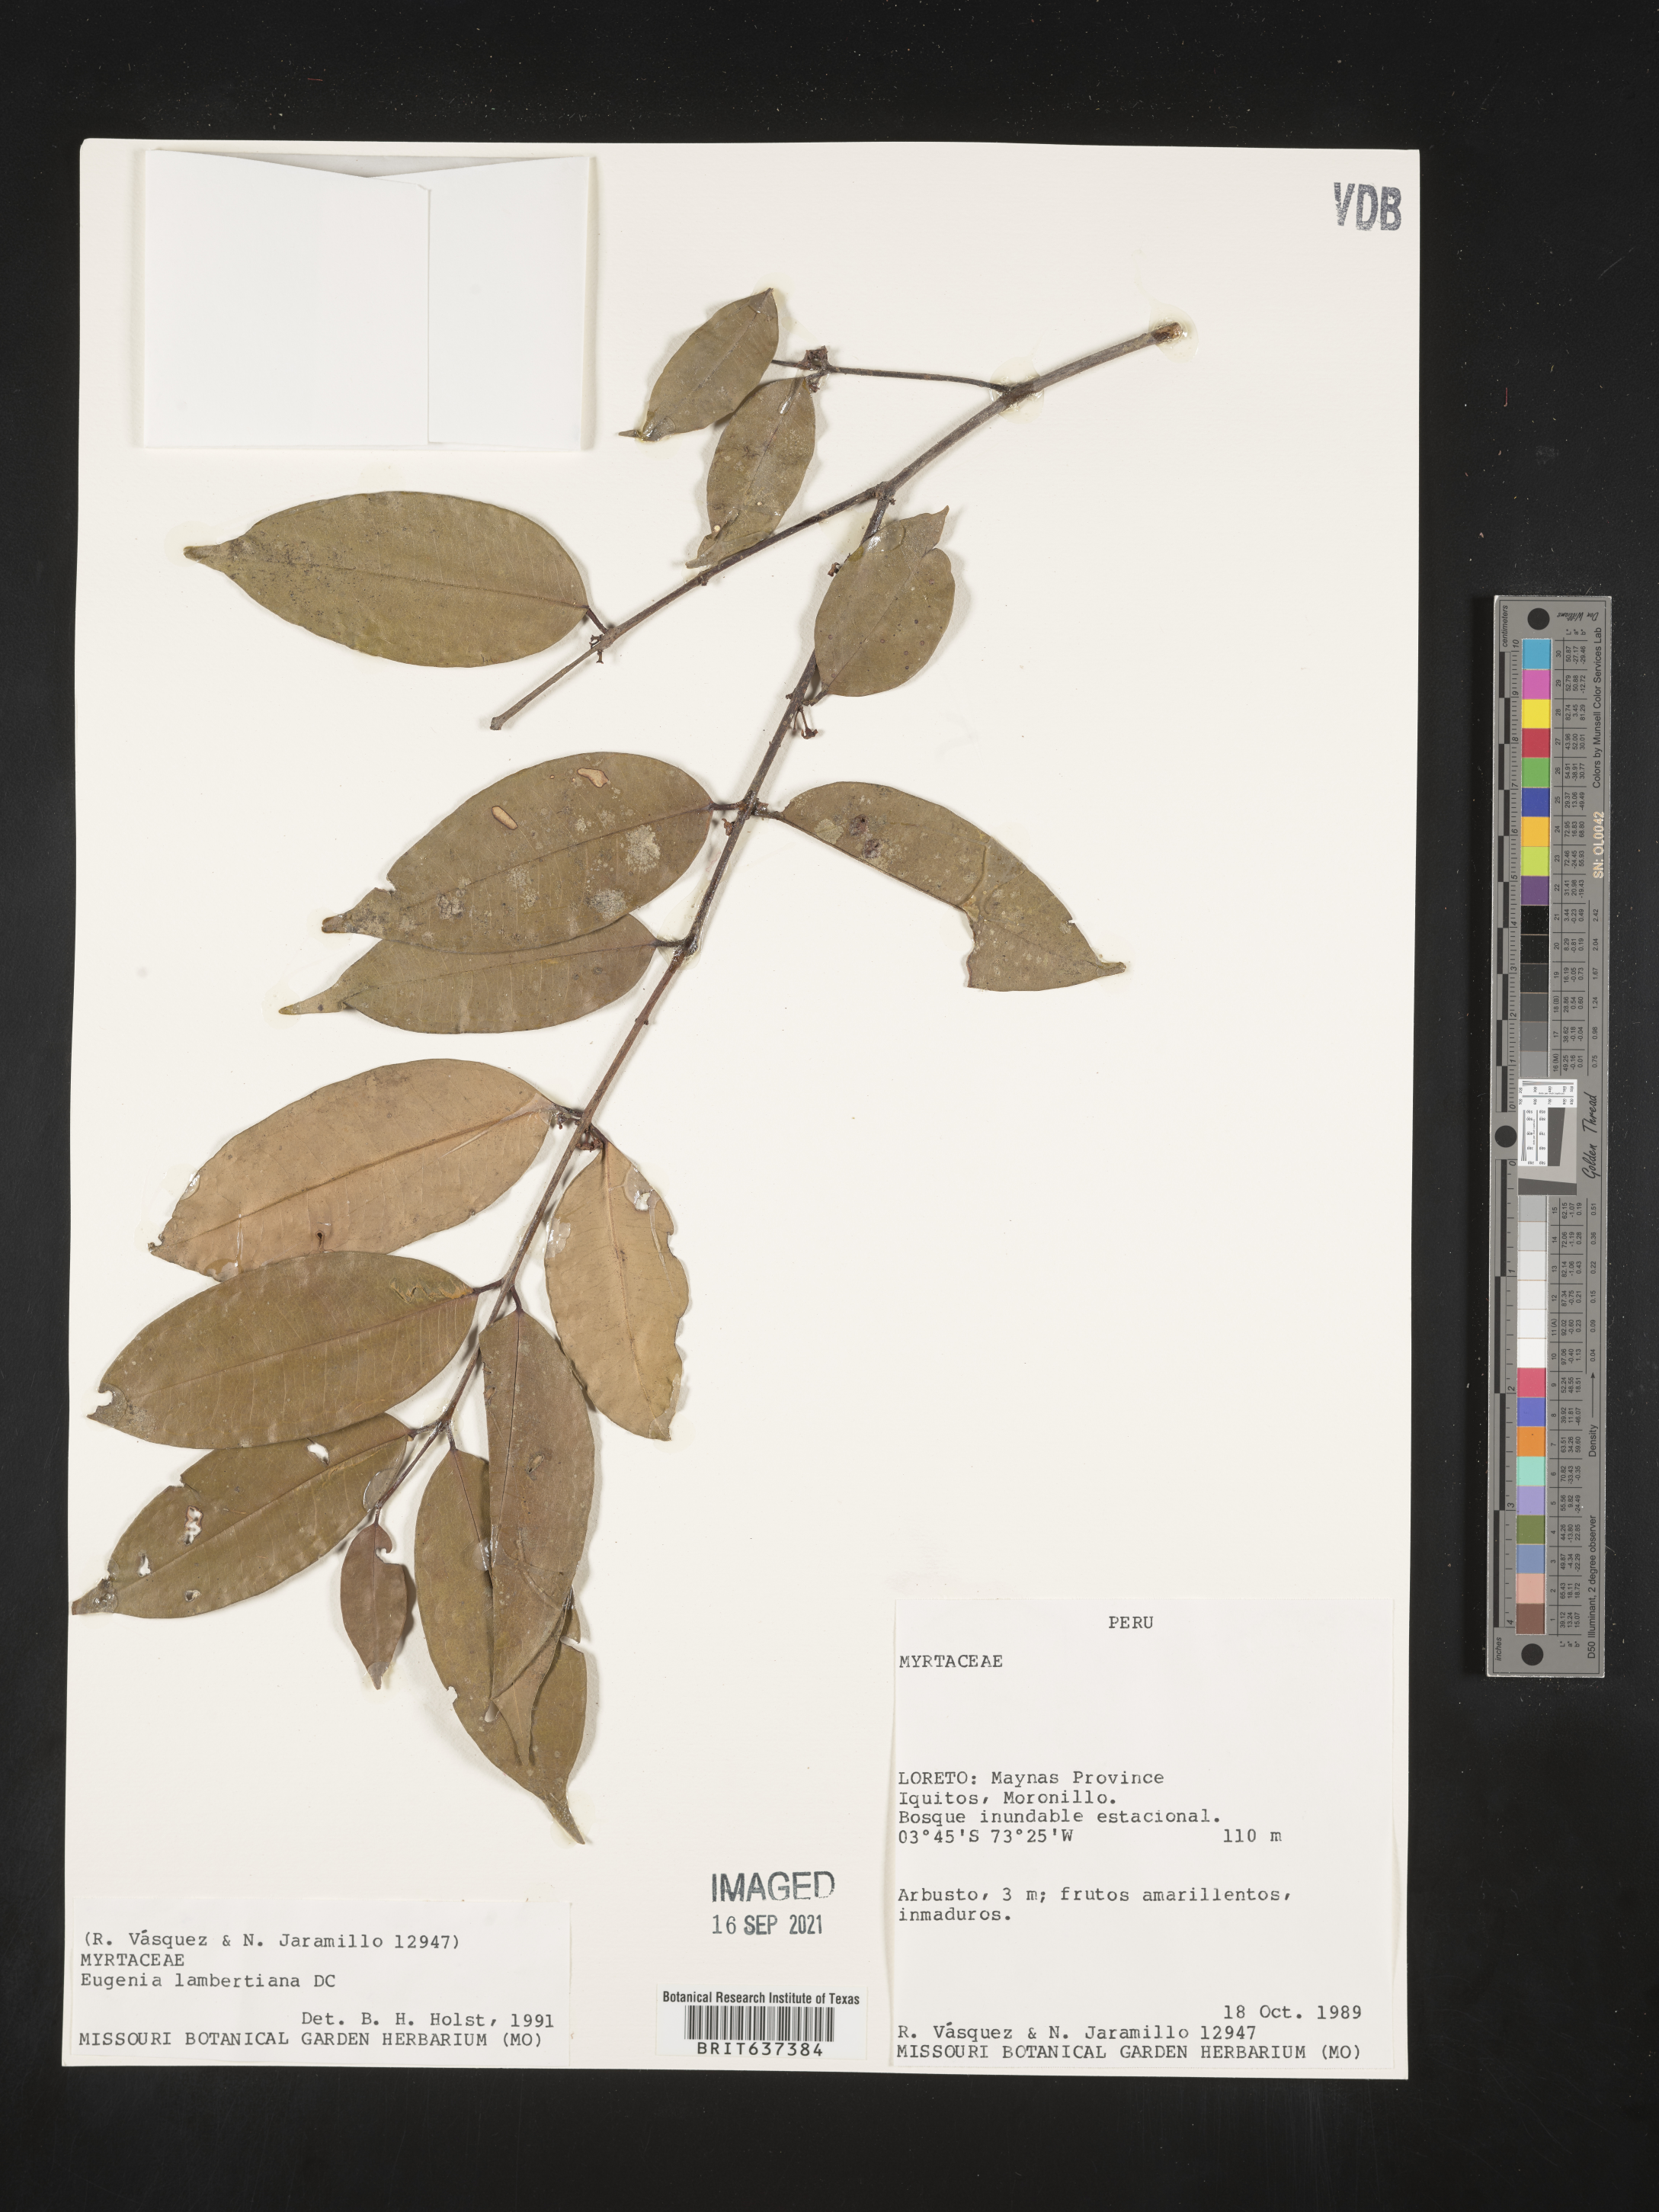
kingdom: Plantae
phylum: Tracheophyta
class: Magnoliopsida
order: Myrtales
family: Myrtaceae
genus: Eugenia
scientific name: Eugenia
